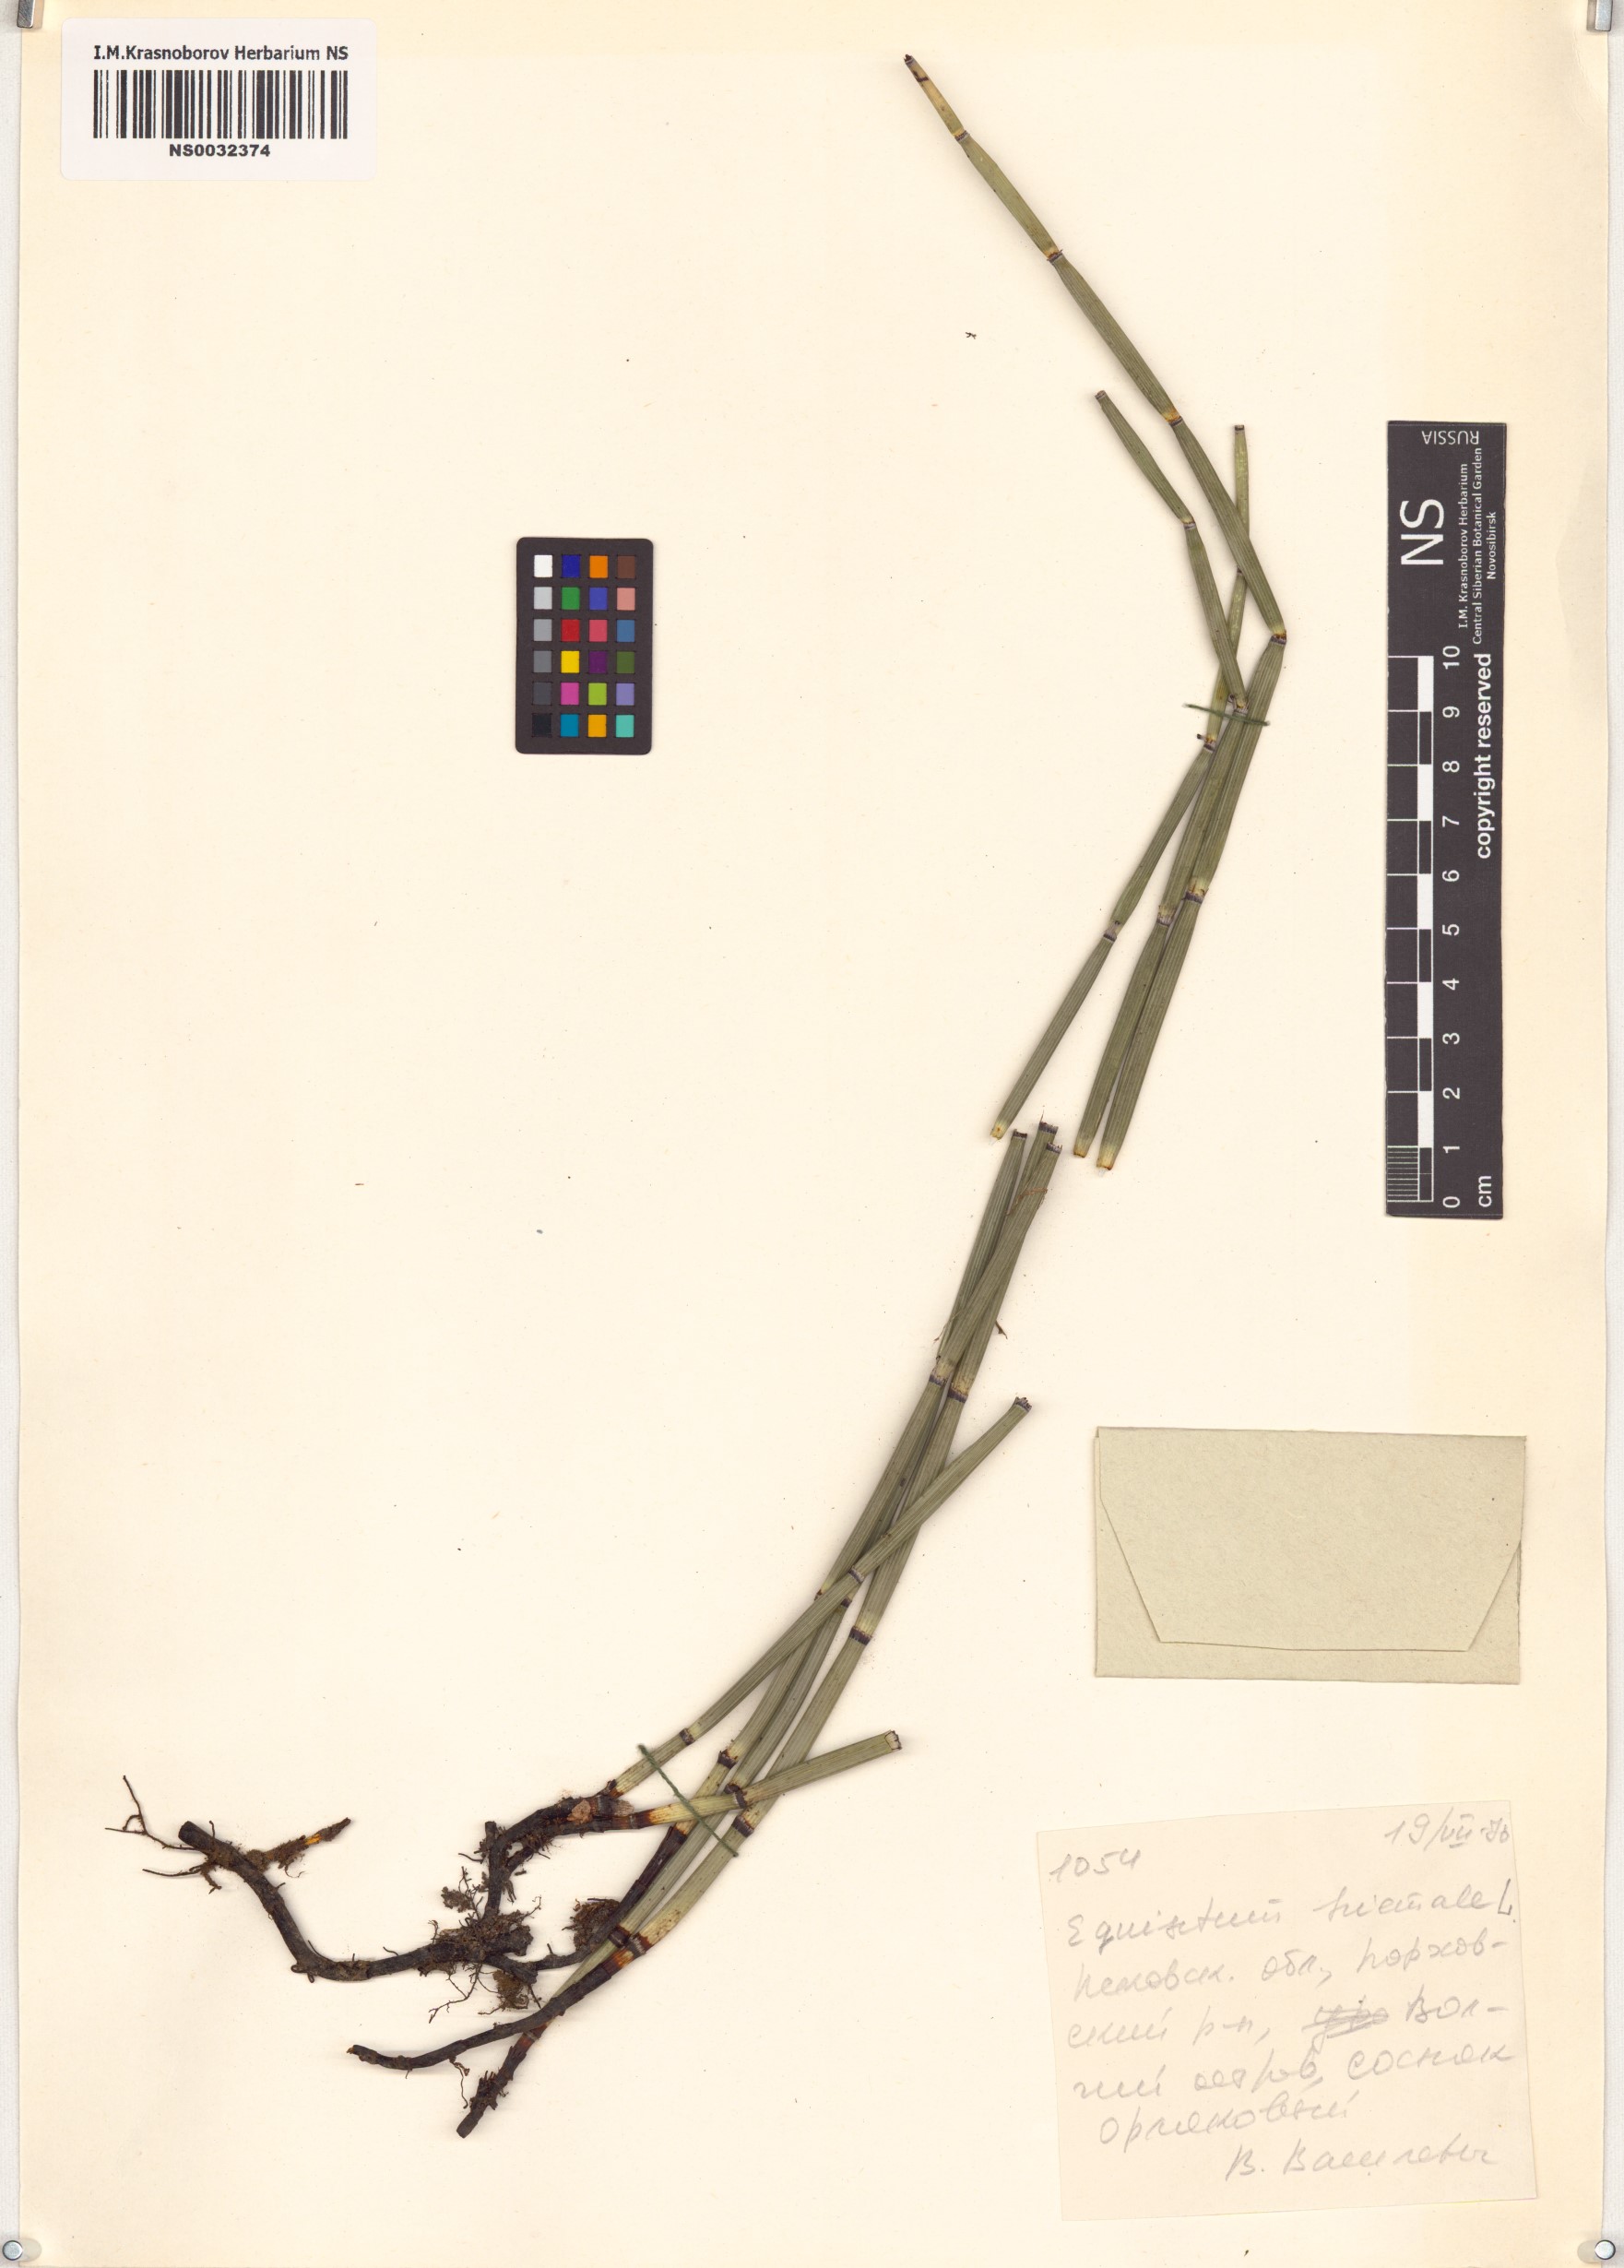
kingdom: Plantae
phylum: Tracheophyta
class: Polypodiopsida
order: Equisetales
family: Equisetaceae
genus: Equisetum
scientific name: Equisetum hyemale
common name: Rough horsetail
